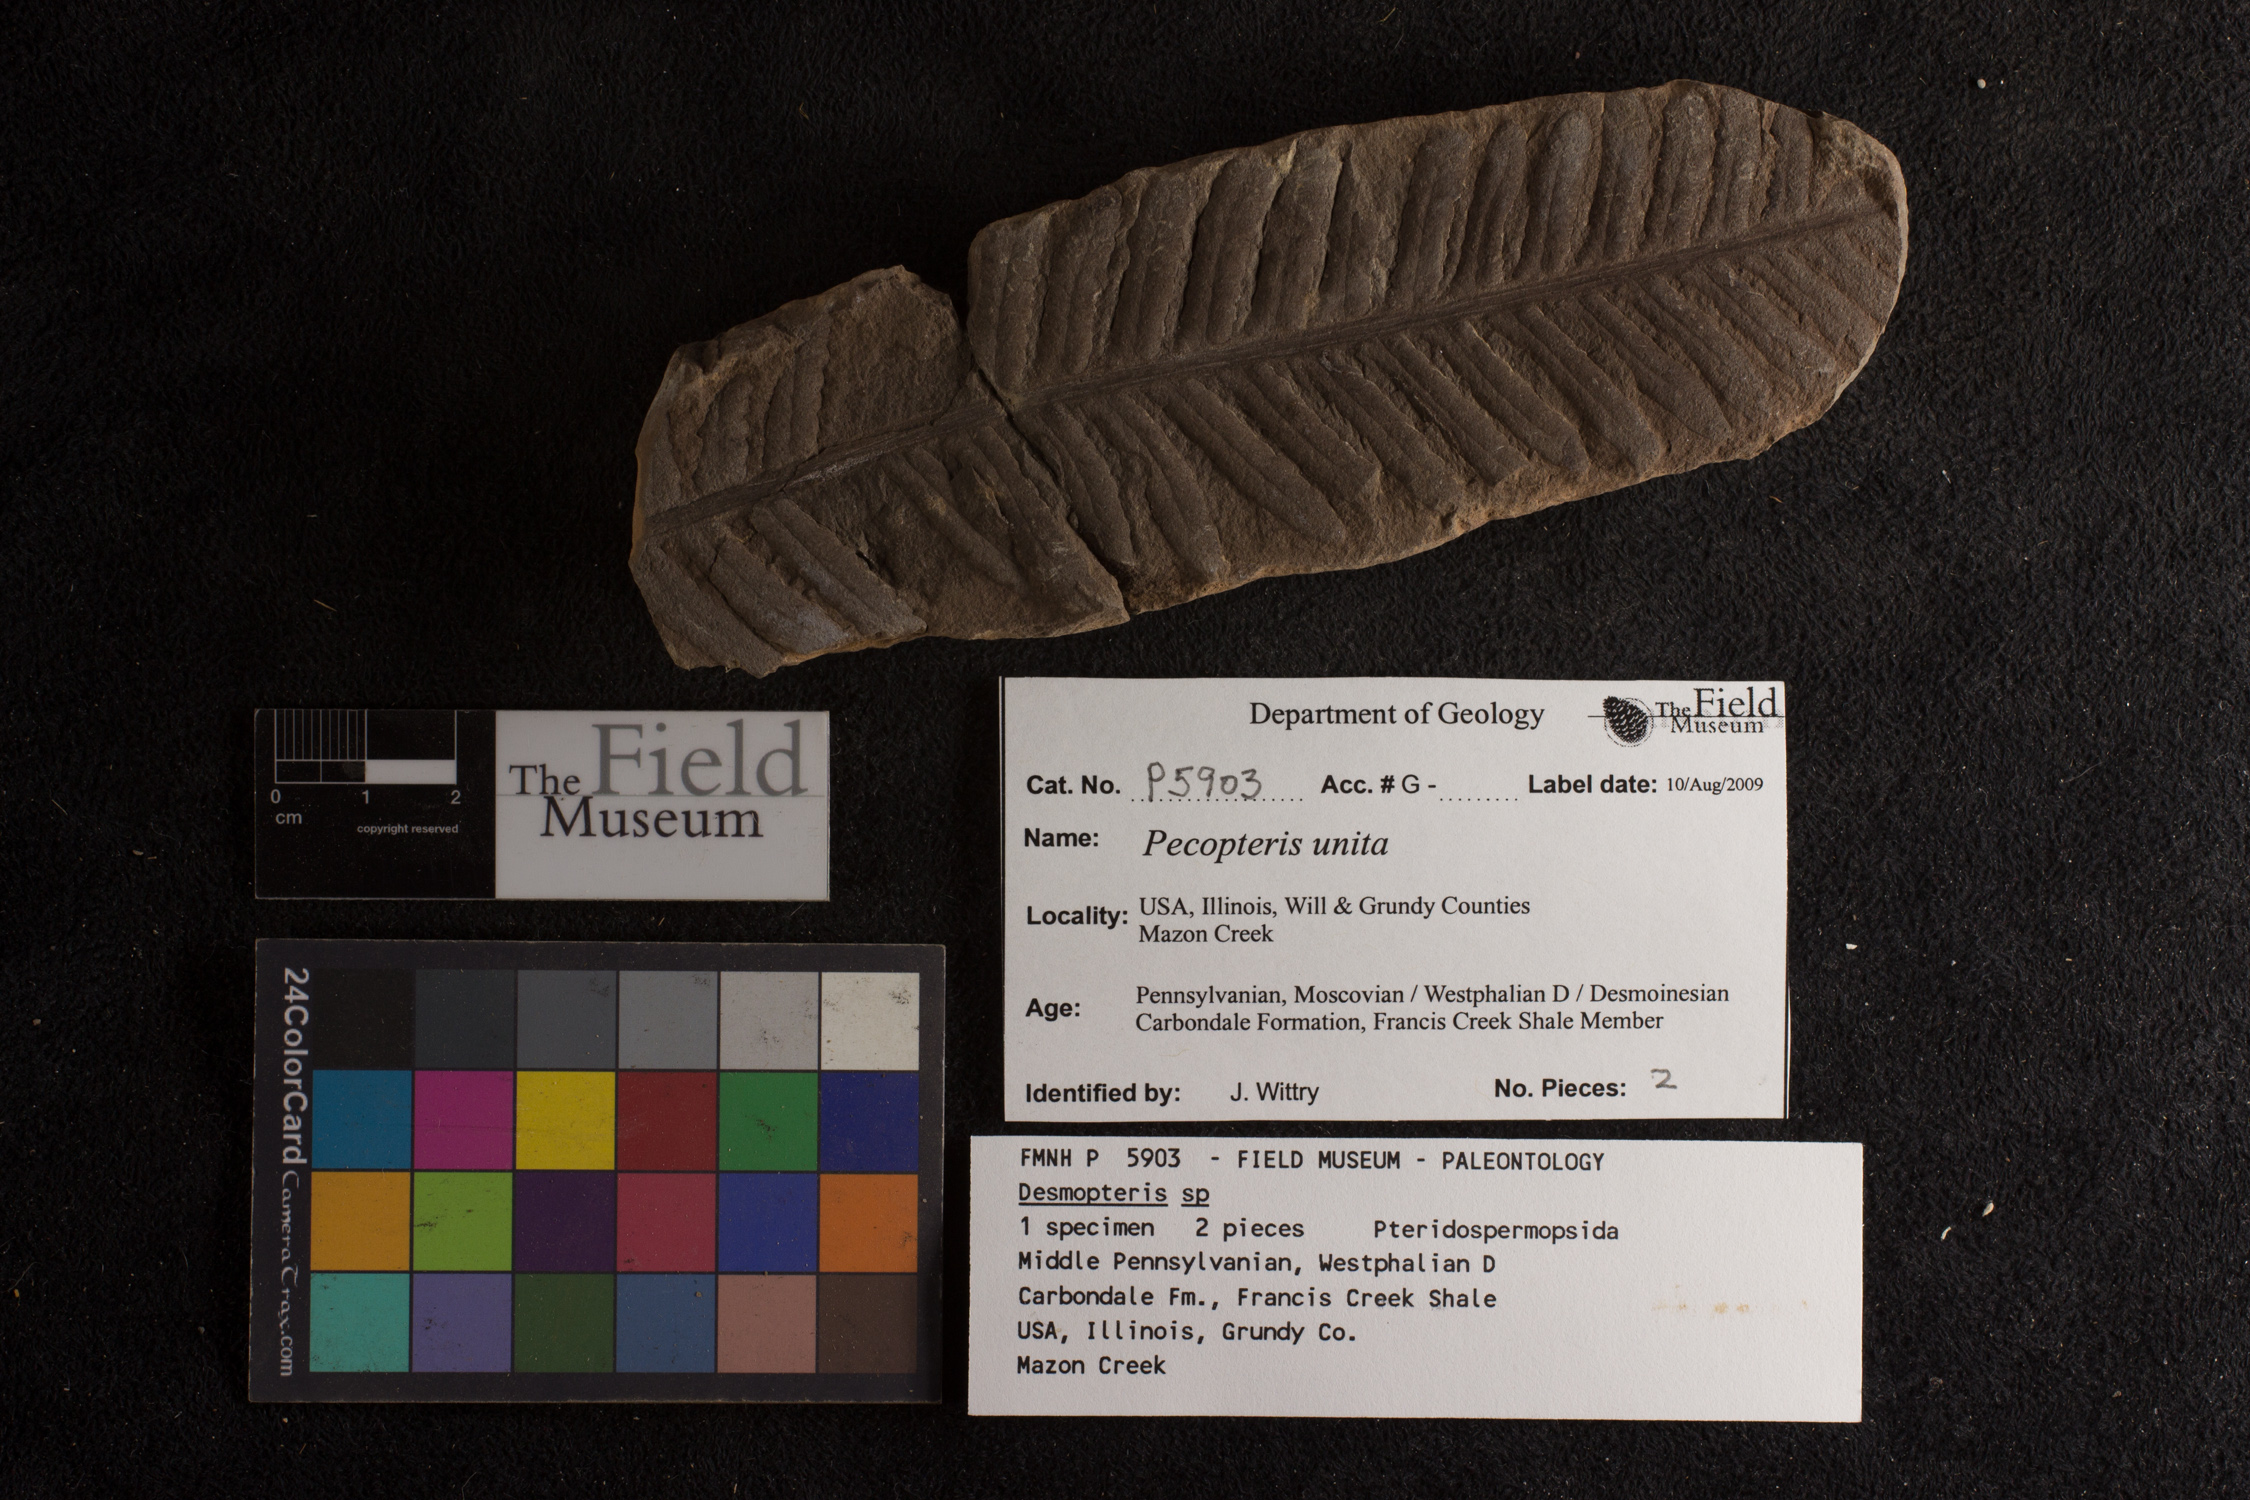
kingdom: Plantae
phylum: Tracheophyta
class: Polypodiopsida
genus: Diplazites
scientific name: Diplazites
